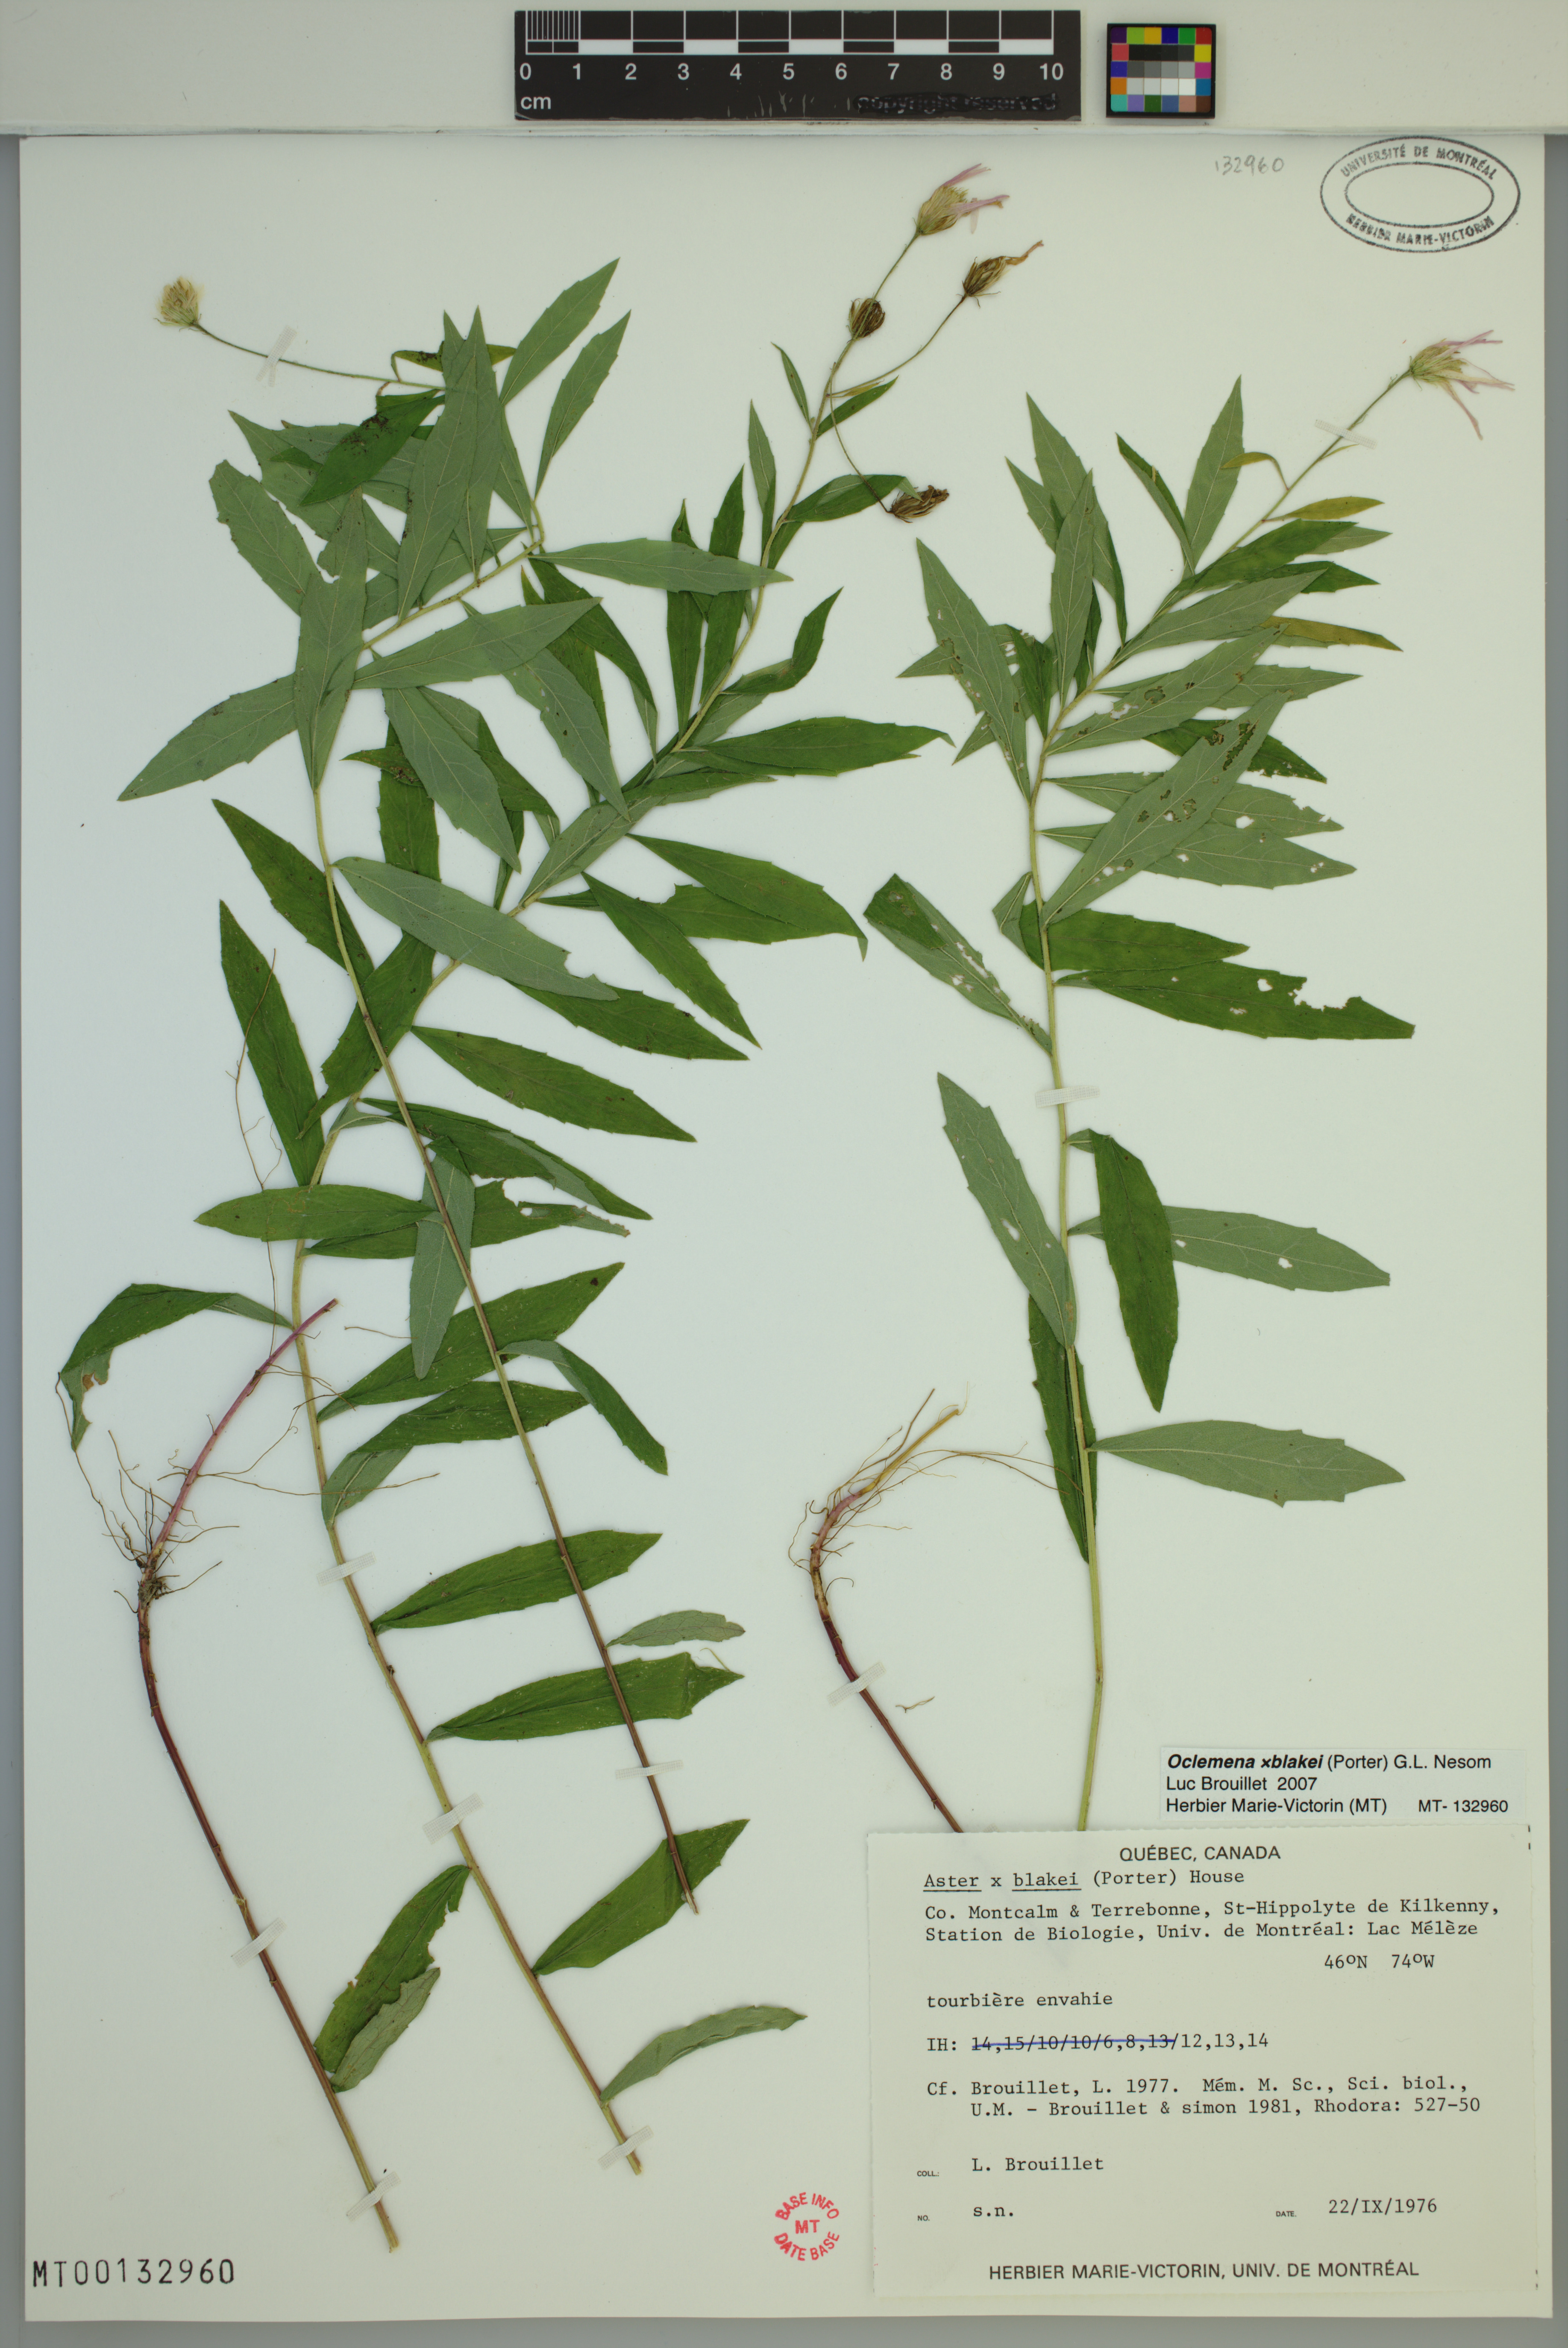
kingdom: Plantae
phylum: Tracheophyta
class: Magnoliopsida
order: Asterales
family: Asteraceae
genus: Oclemena
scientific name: Oclemena blakei
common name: Blake's aster
